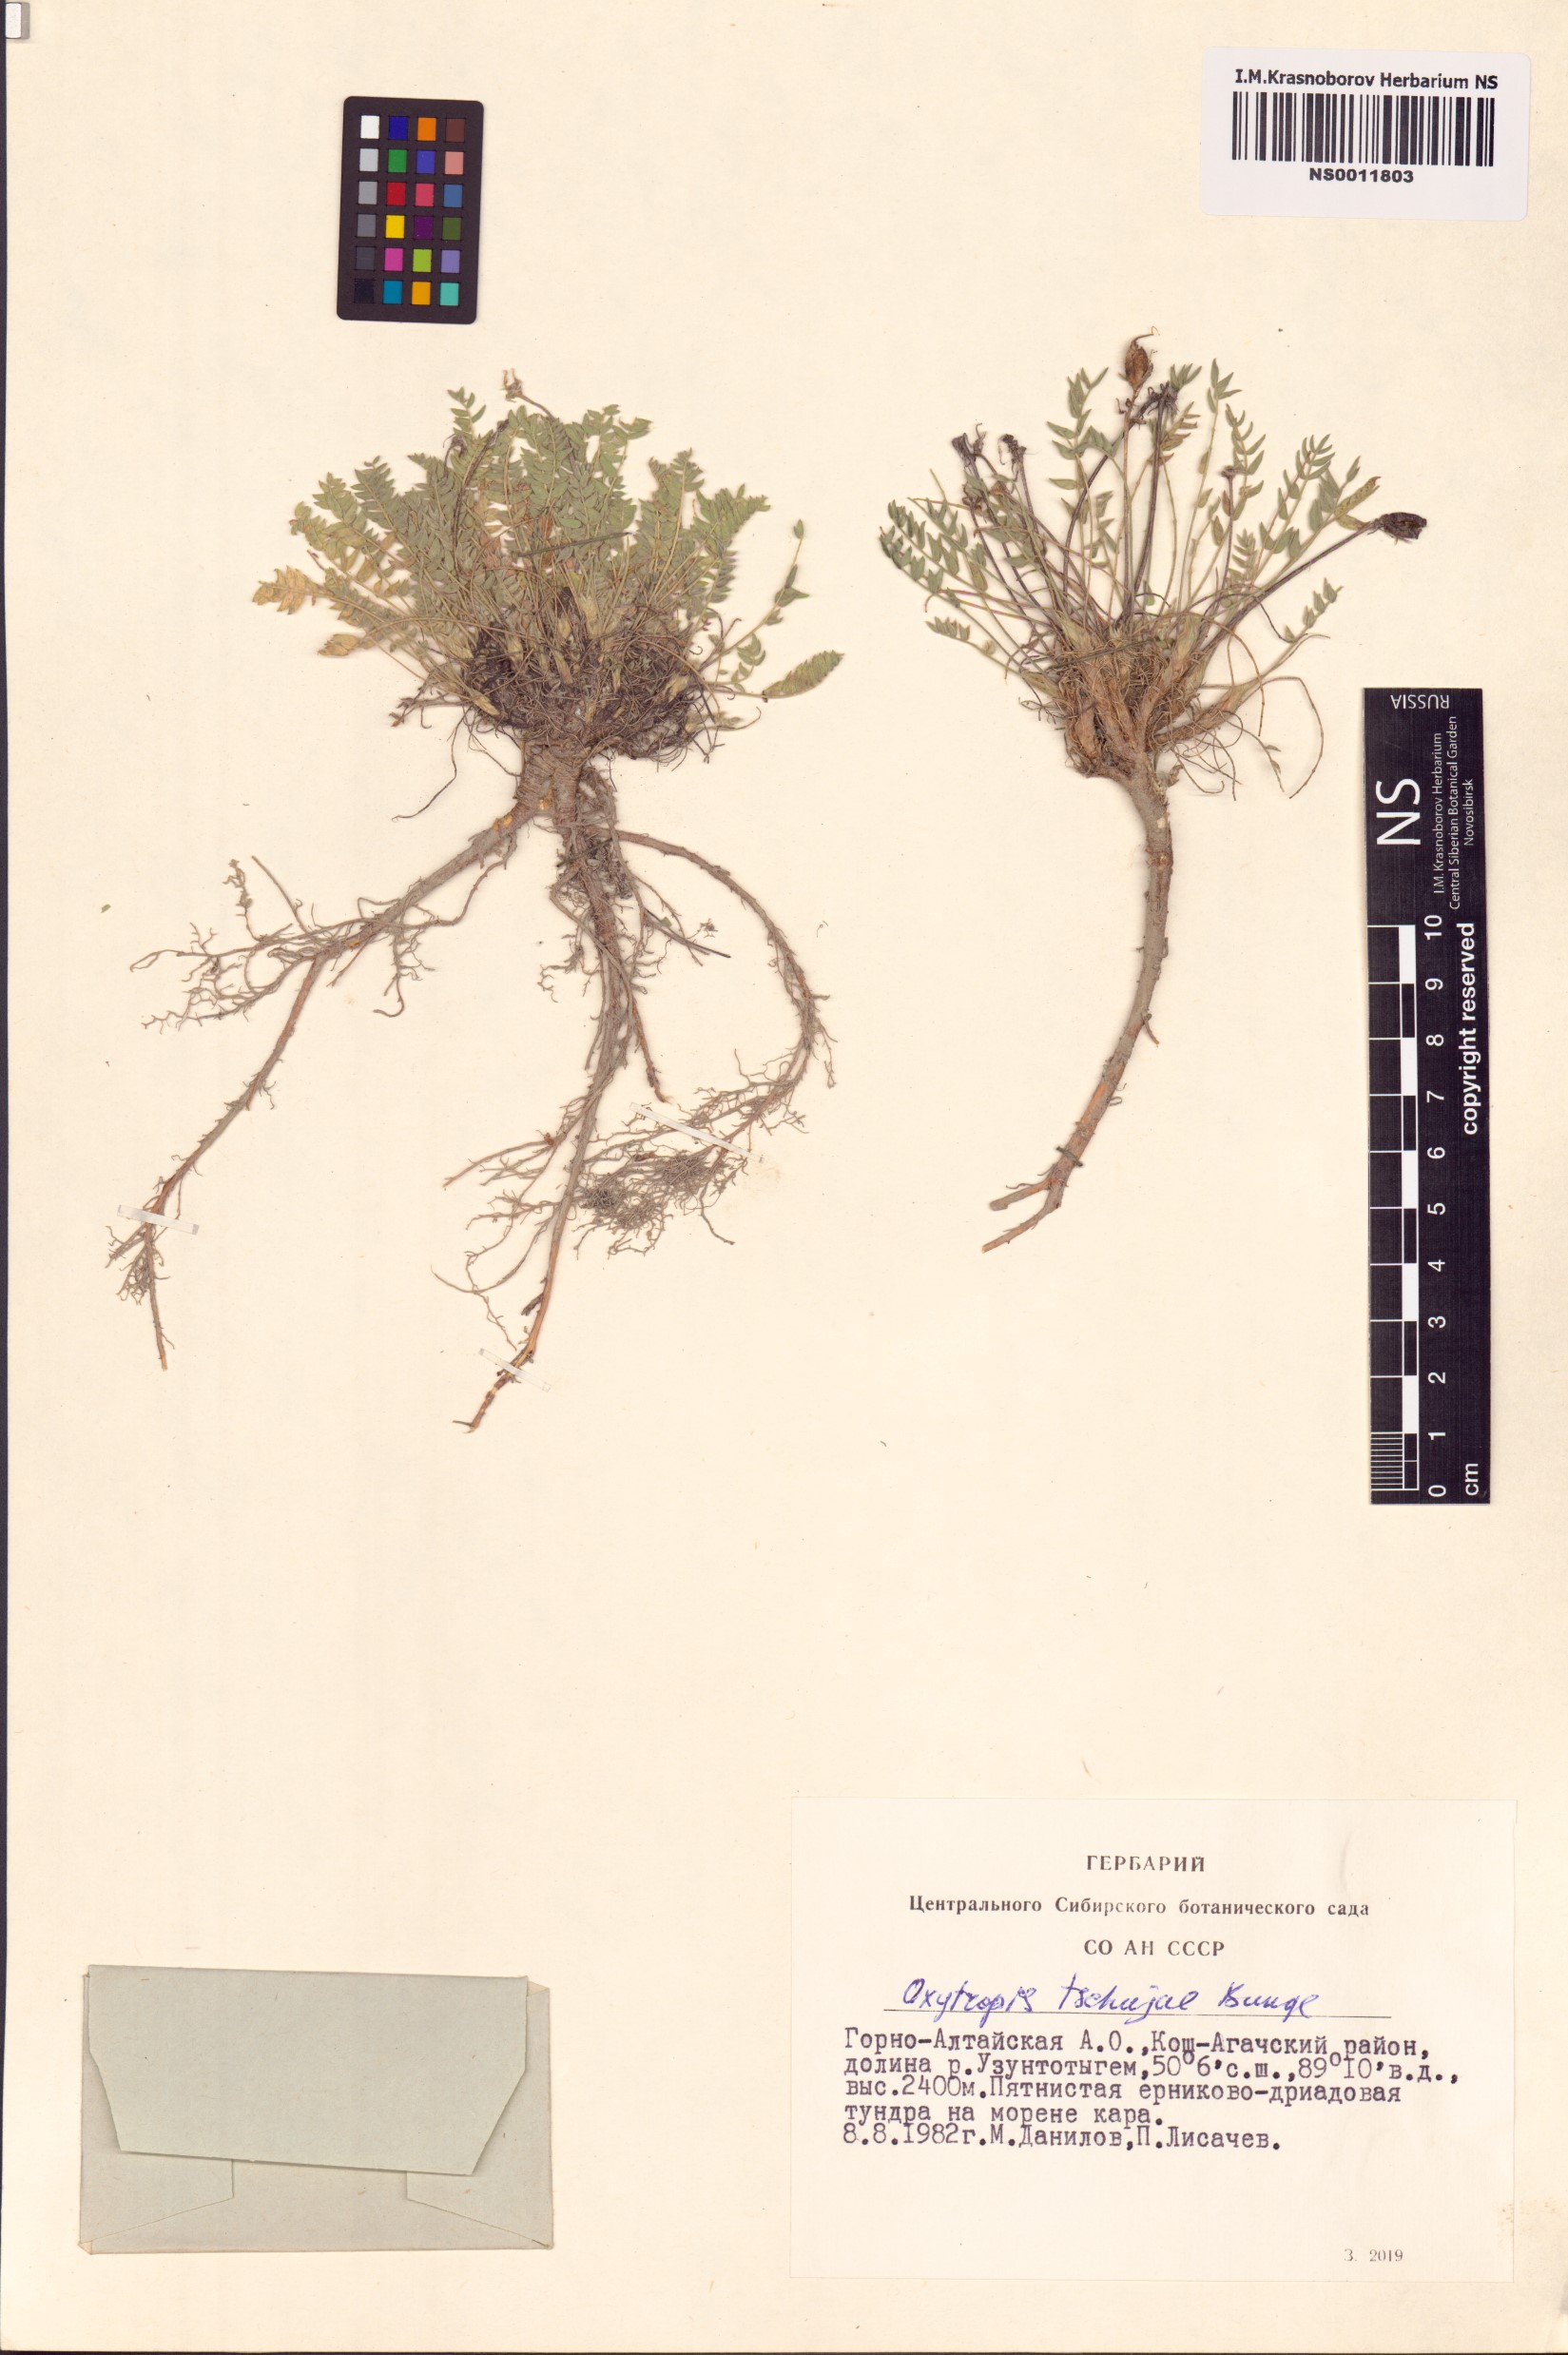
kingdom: Plantae
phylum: Tracheophyta
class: Magnoliopsida
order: Fabales
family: Fabaceae
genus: Oxytropis
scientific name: Oxytropis tschujae
